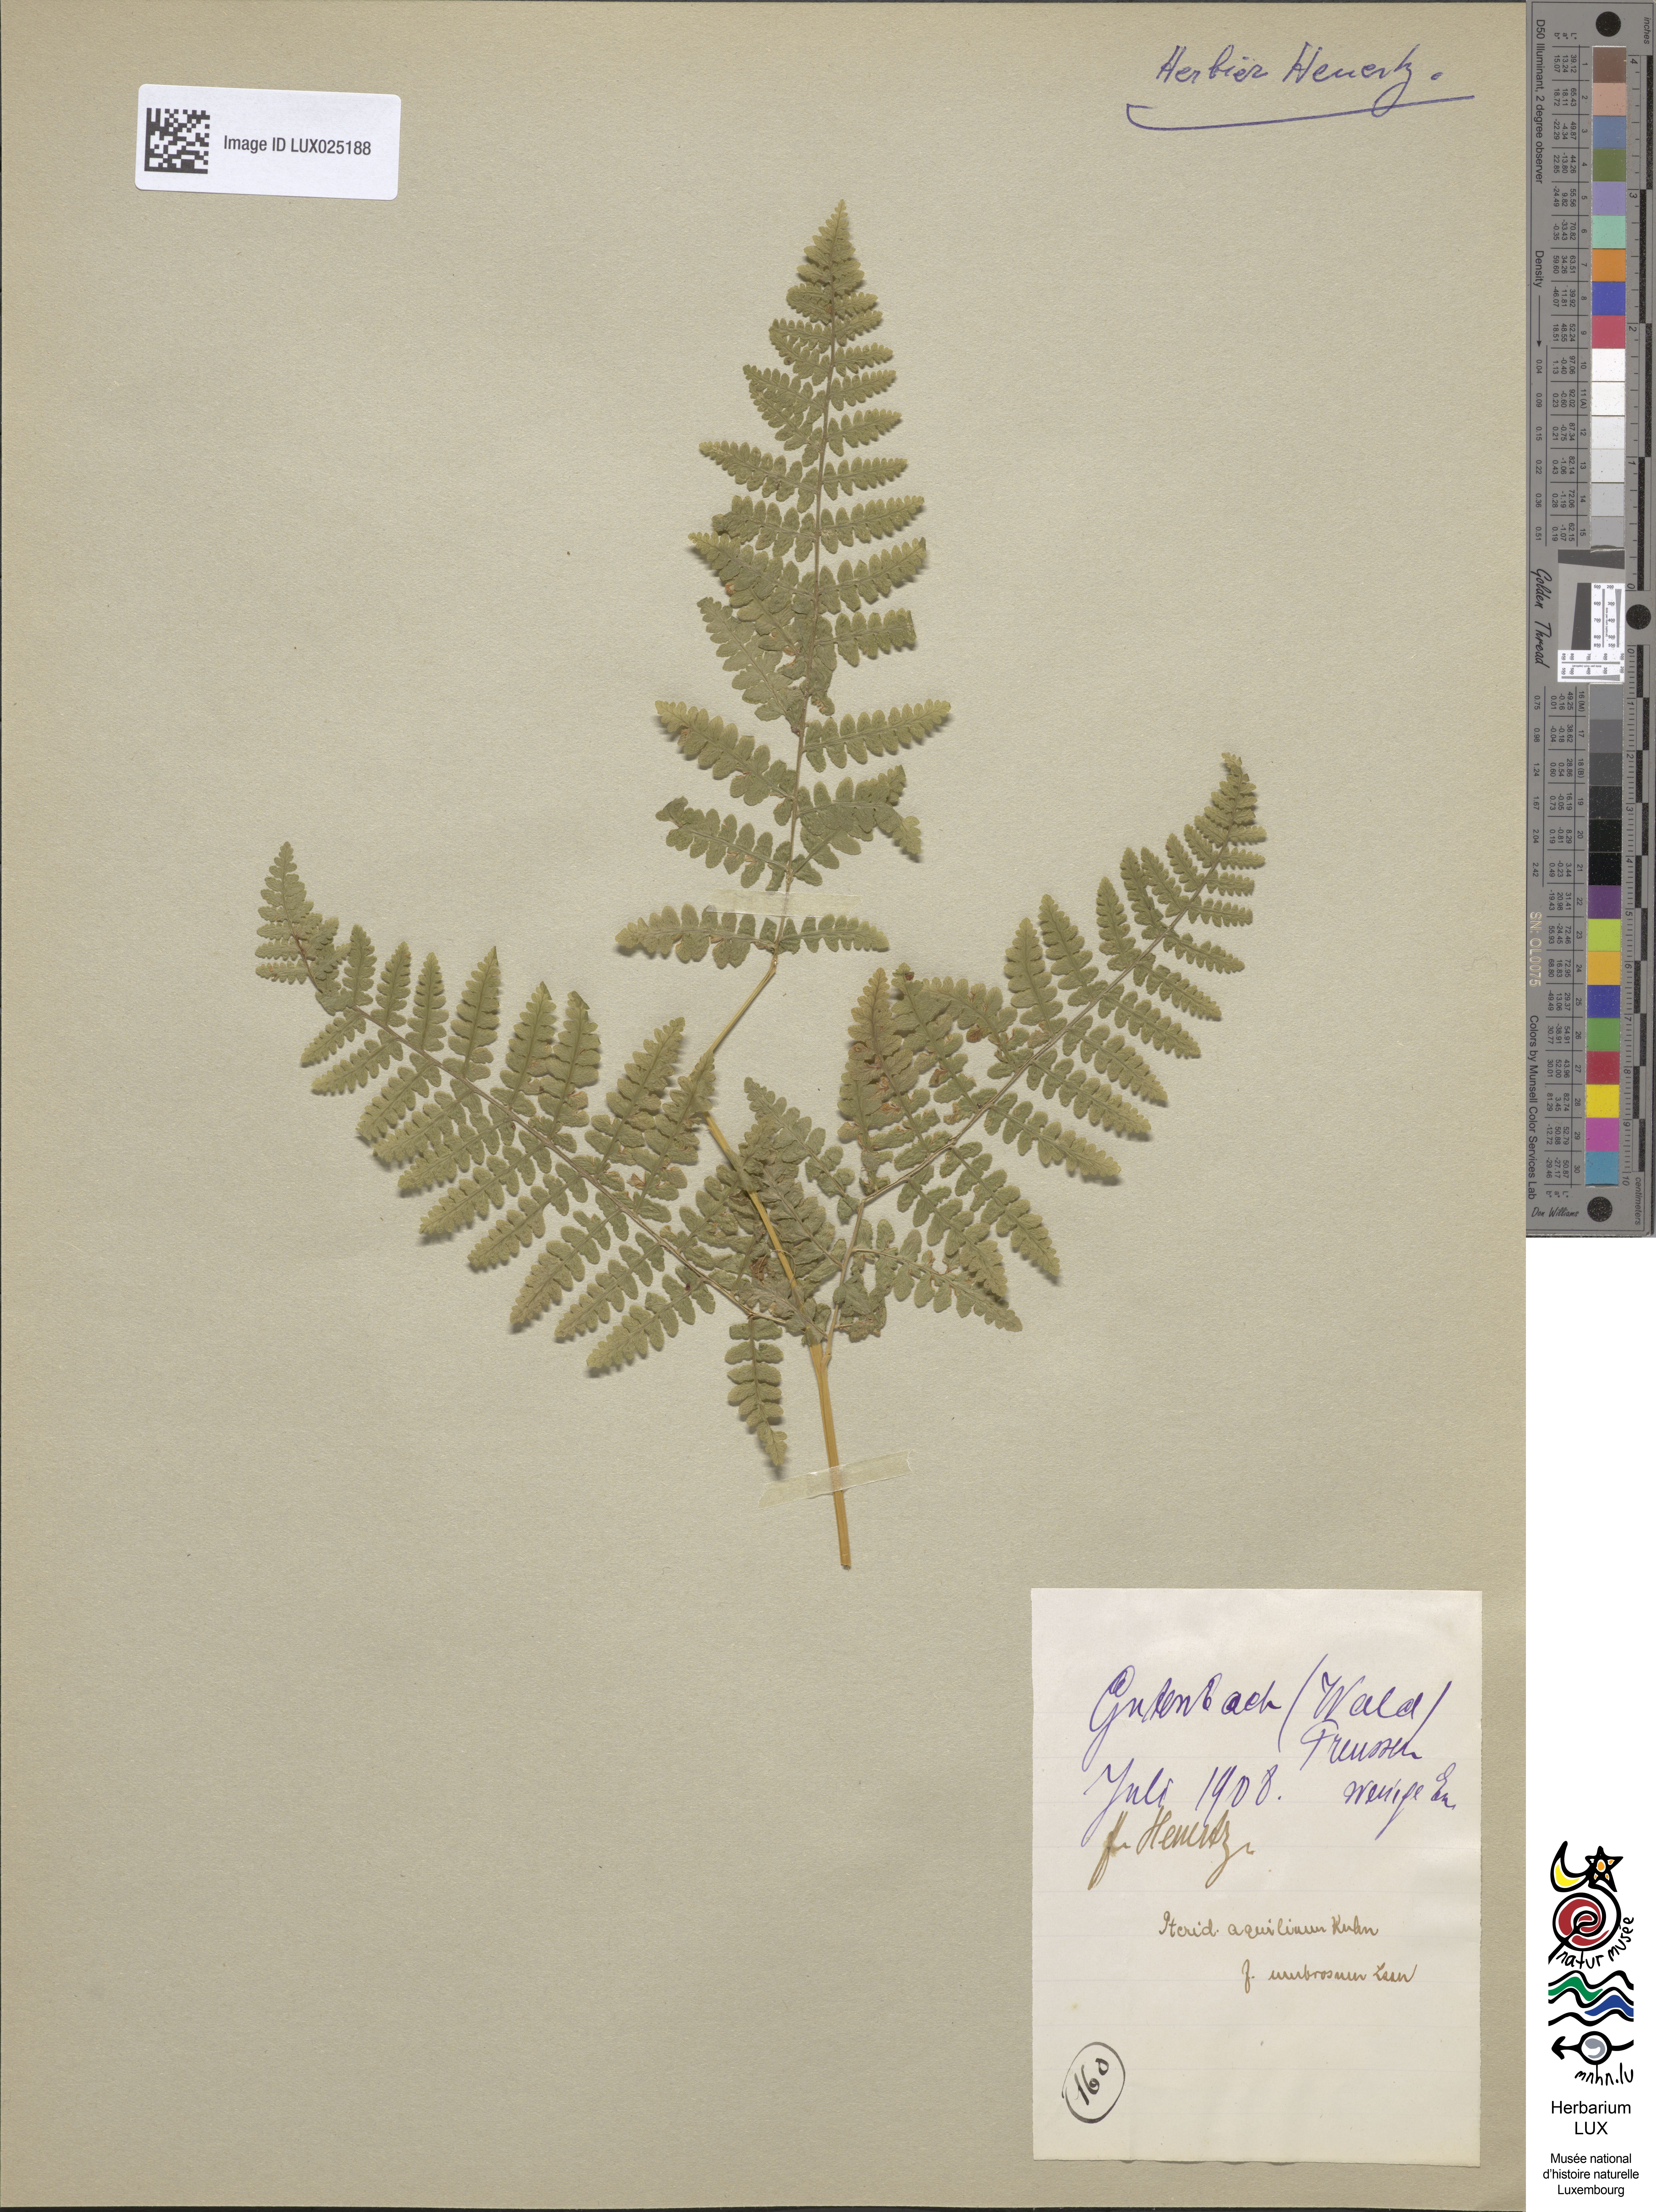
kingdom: Plantae
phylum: Tracheophyta
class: Polypodiopsida
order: Polypodiales
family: Dennstaedtiaceae
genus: Pteridium
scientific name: Pteridium aquilinum
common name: Bracken
